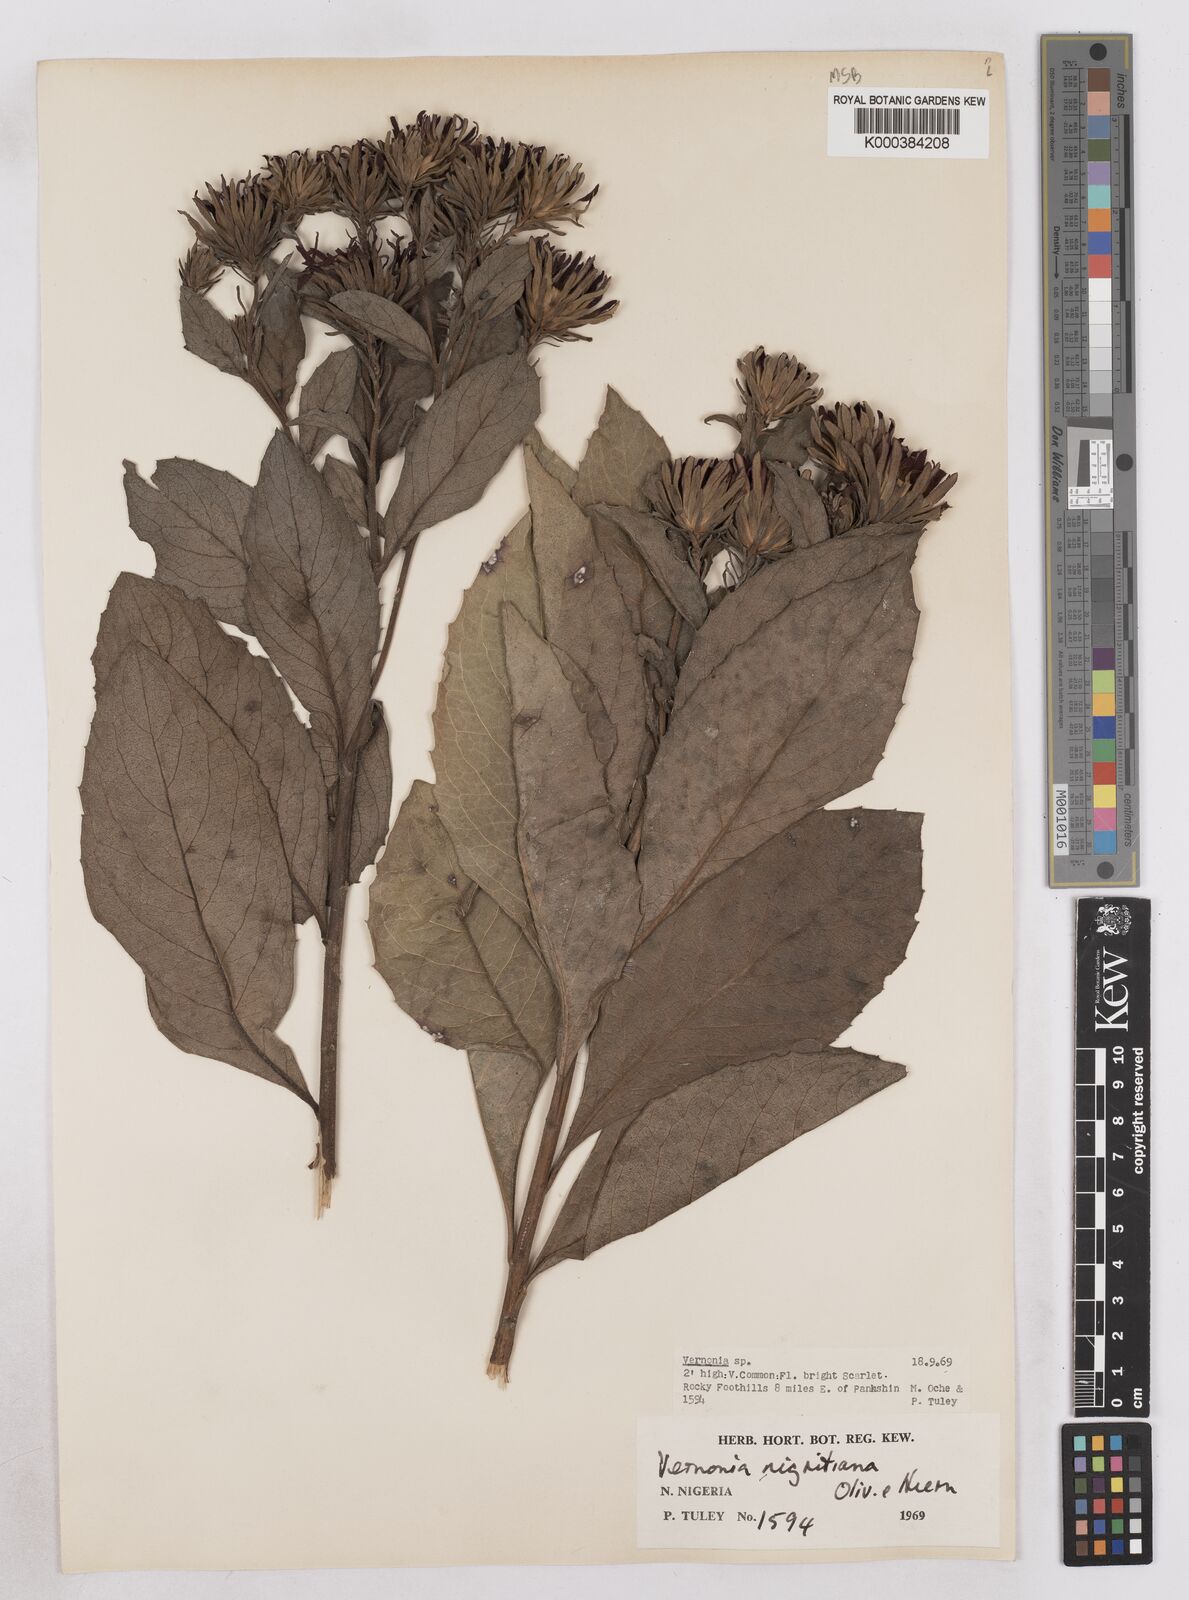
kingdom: Plantae
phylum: Tracheophyta
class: Magnoliopsida
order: Asterales
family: Asteraceae
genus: Linzia
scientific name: Linzia nigritiana
